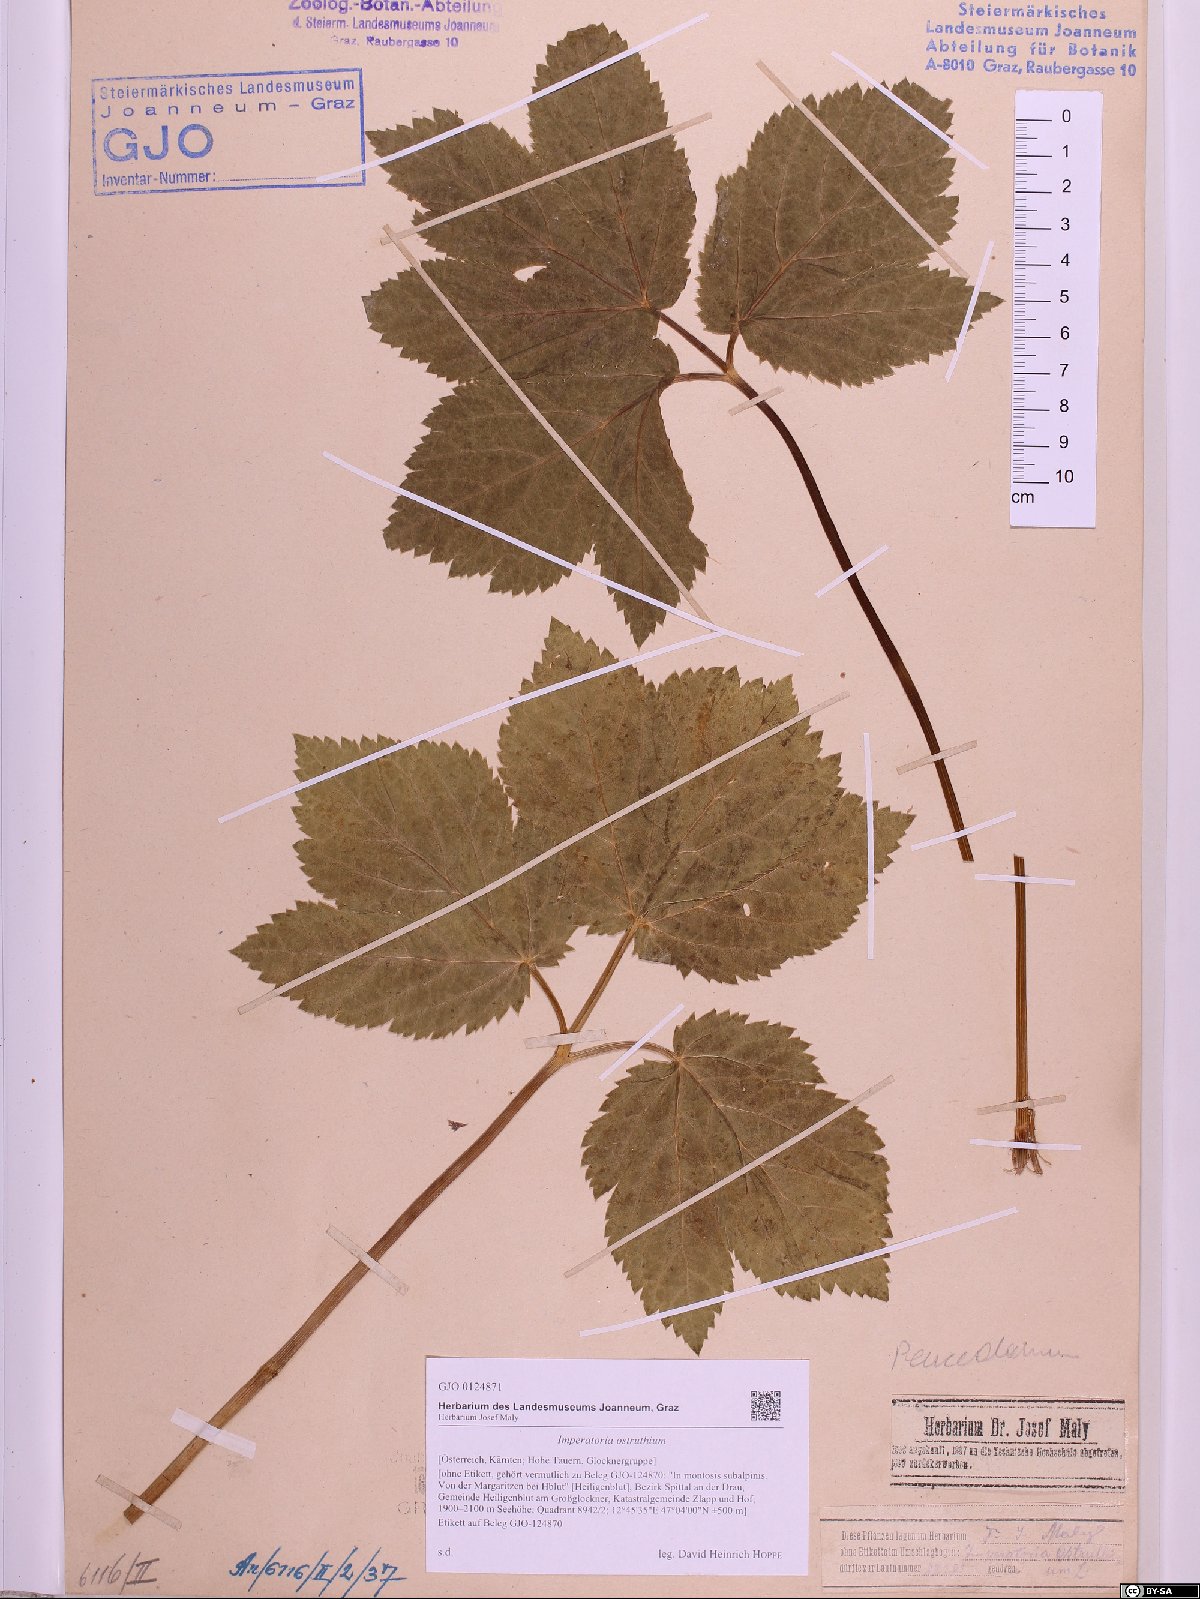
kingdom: Plantae
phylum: Tracheophyta
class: Magnoliopsida
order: Apiales
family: Apiaceae
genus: Imperatoria
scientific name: Imperatoria ostruthium
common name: Masterwort
